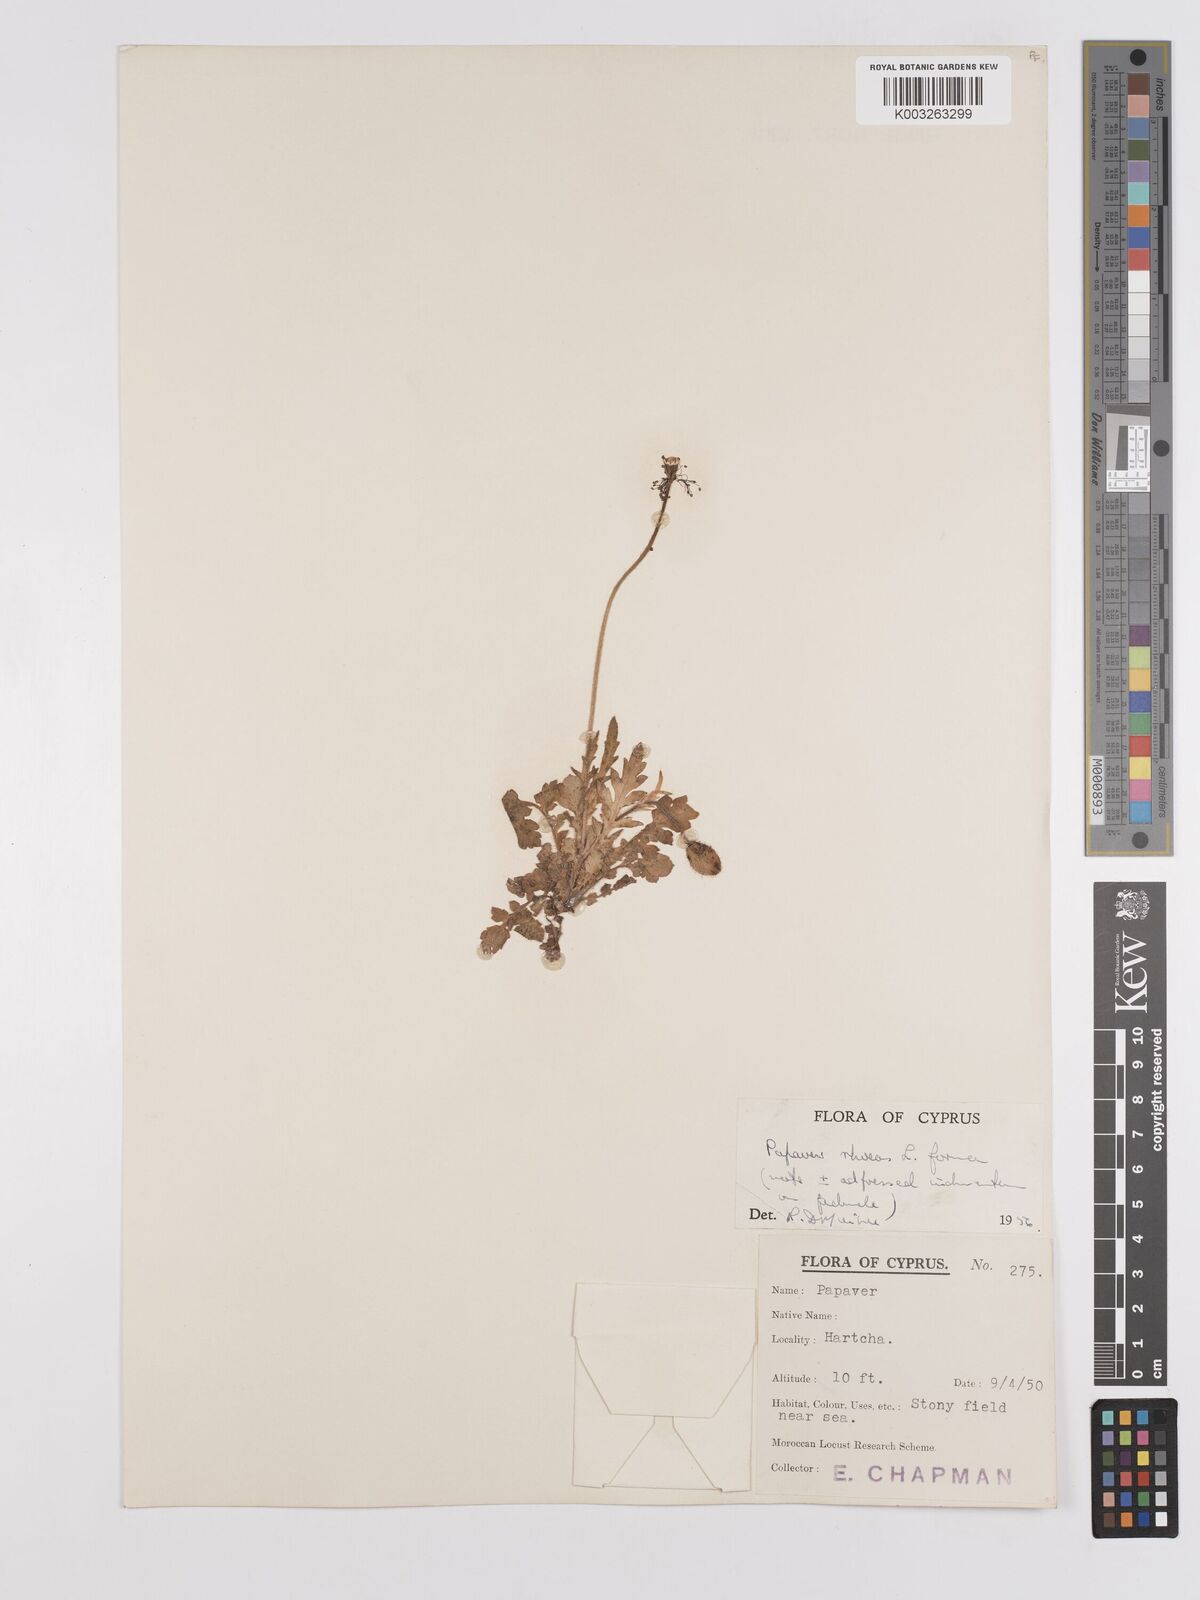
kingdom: Plantae
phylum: Tracheophyta
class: Magnoliopsida
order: Ranunculales
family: Papaveraceae
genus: Papaver
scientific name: Papaver rhoeas
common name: Corn poppy
